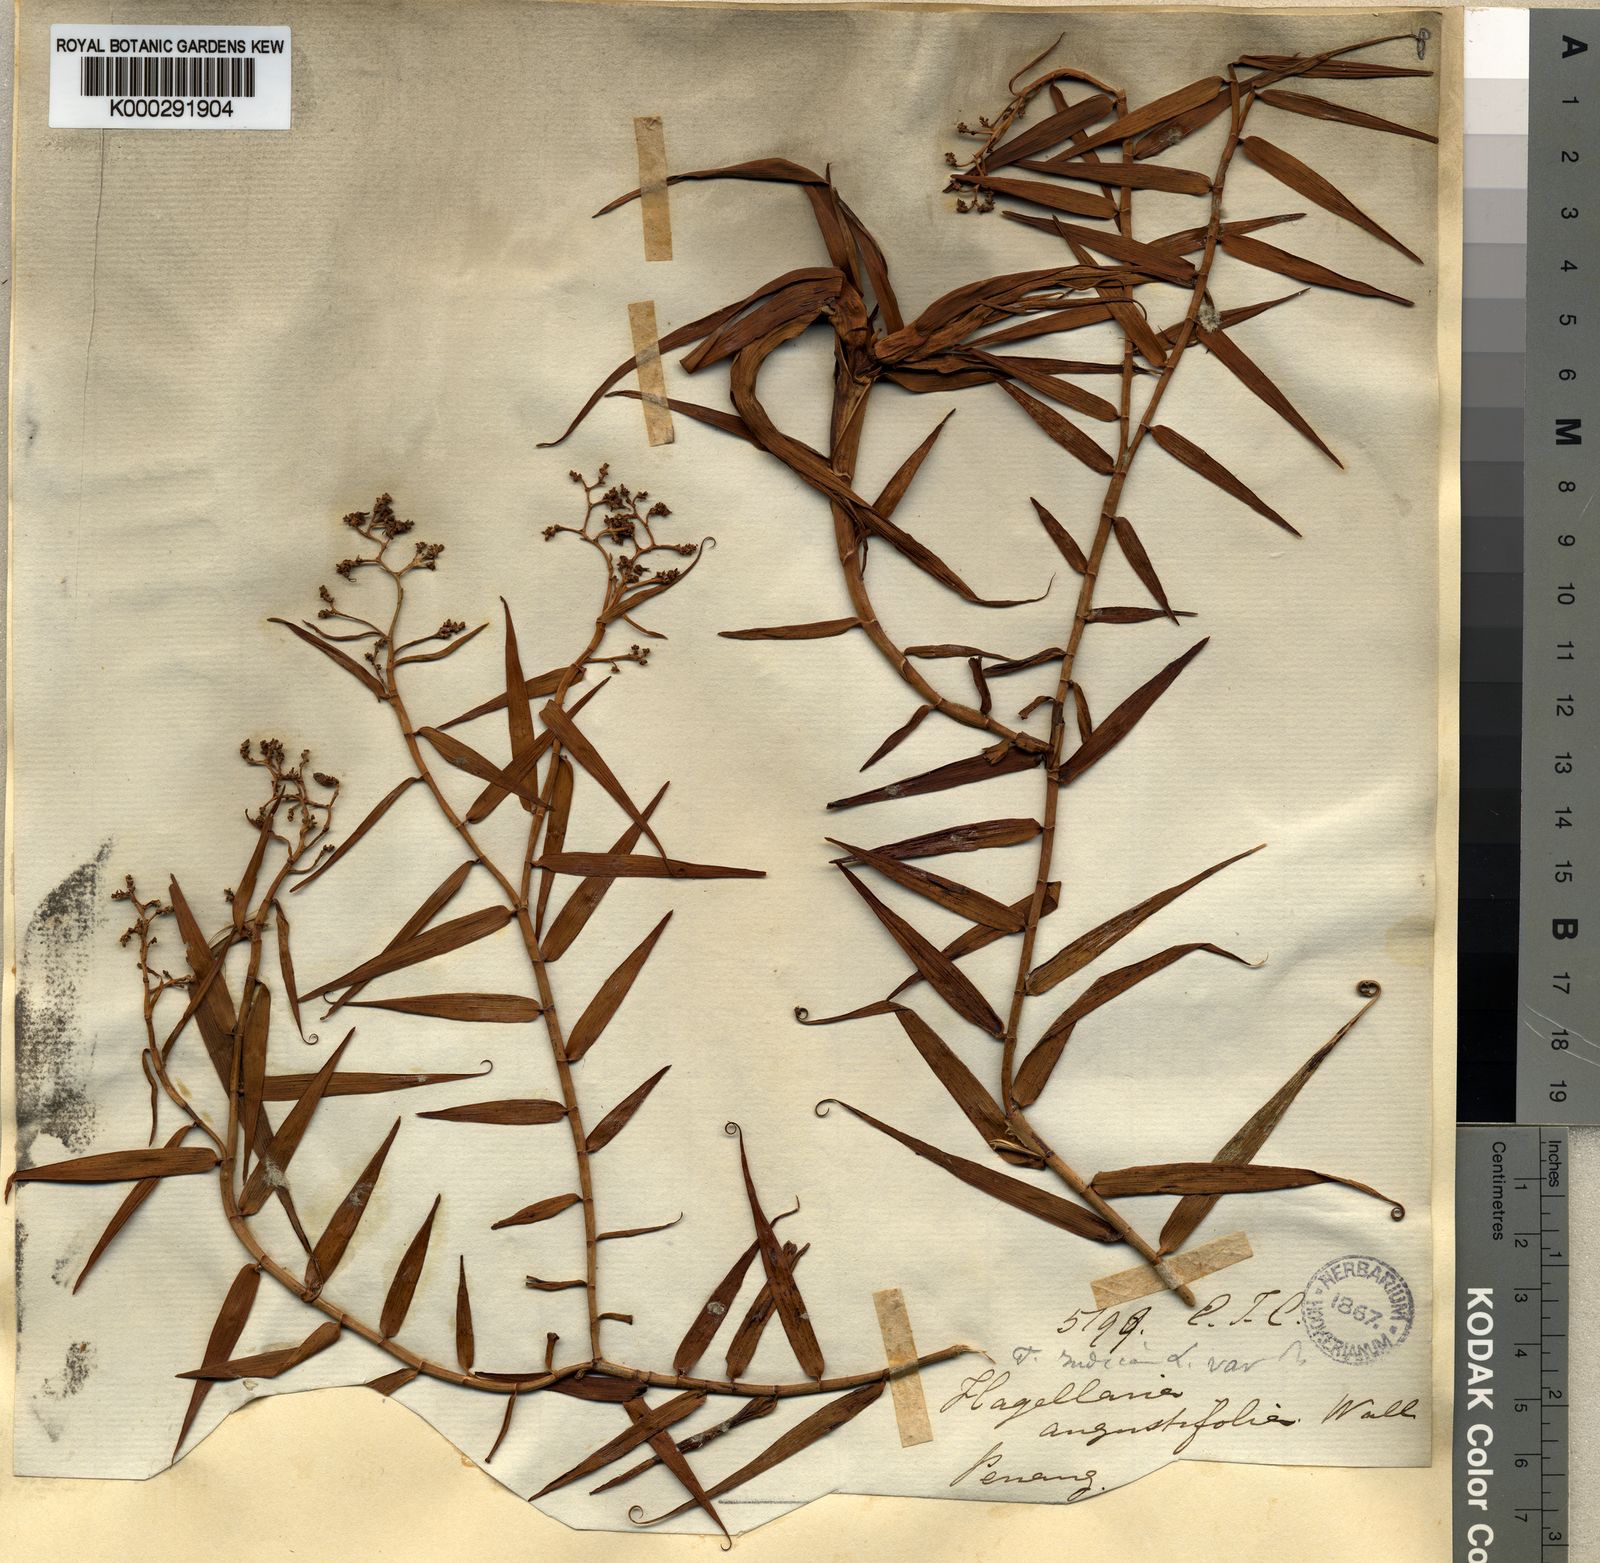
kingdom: Plantae
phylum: Tracheophyta
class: Liliopsida
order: Poales
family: Flagellariaceae
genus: Flagellaria
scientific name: Flagellaria indica
